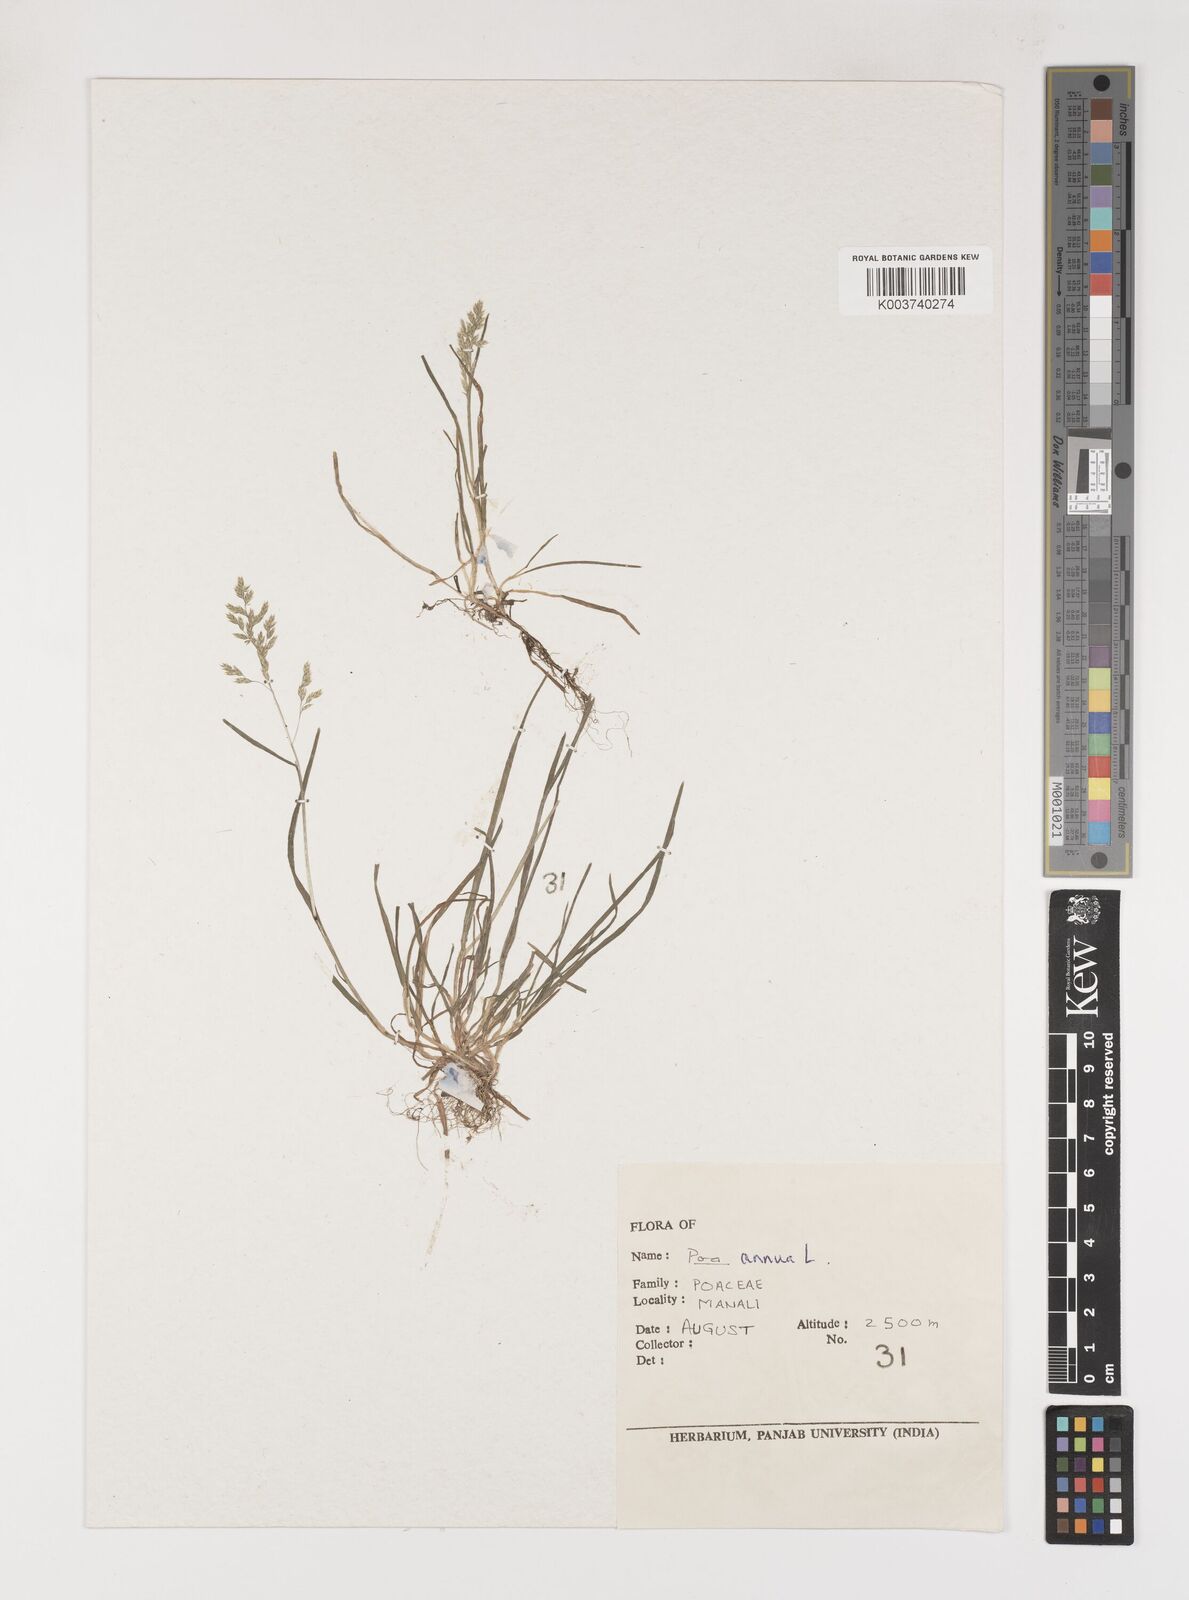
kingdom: Plantae
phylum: Tracheophyta
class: Liliopsida
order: Poales
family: Poaceae
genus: Poa
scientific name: Poa annua
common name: Annual bluegrass
